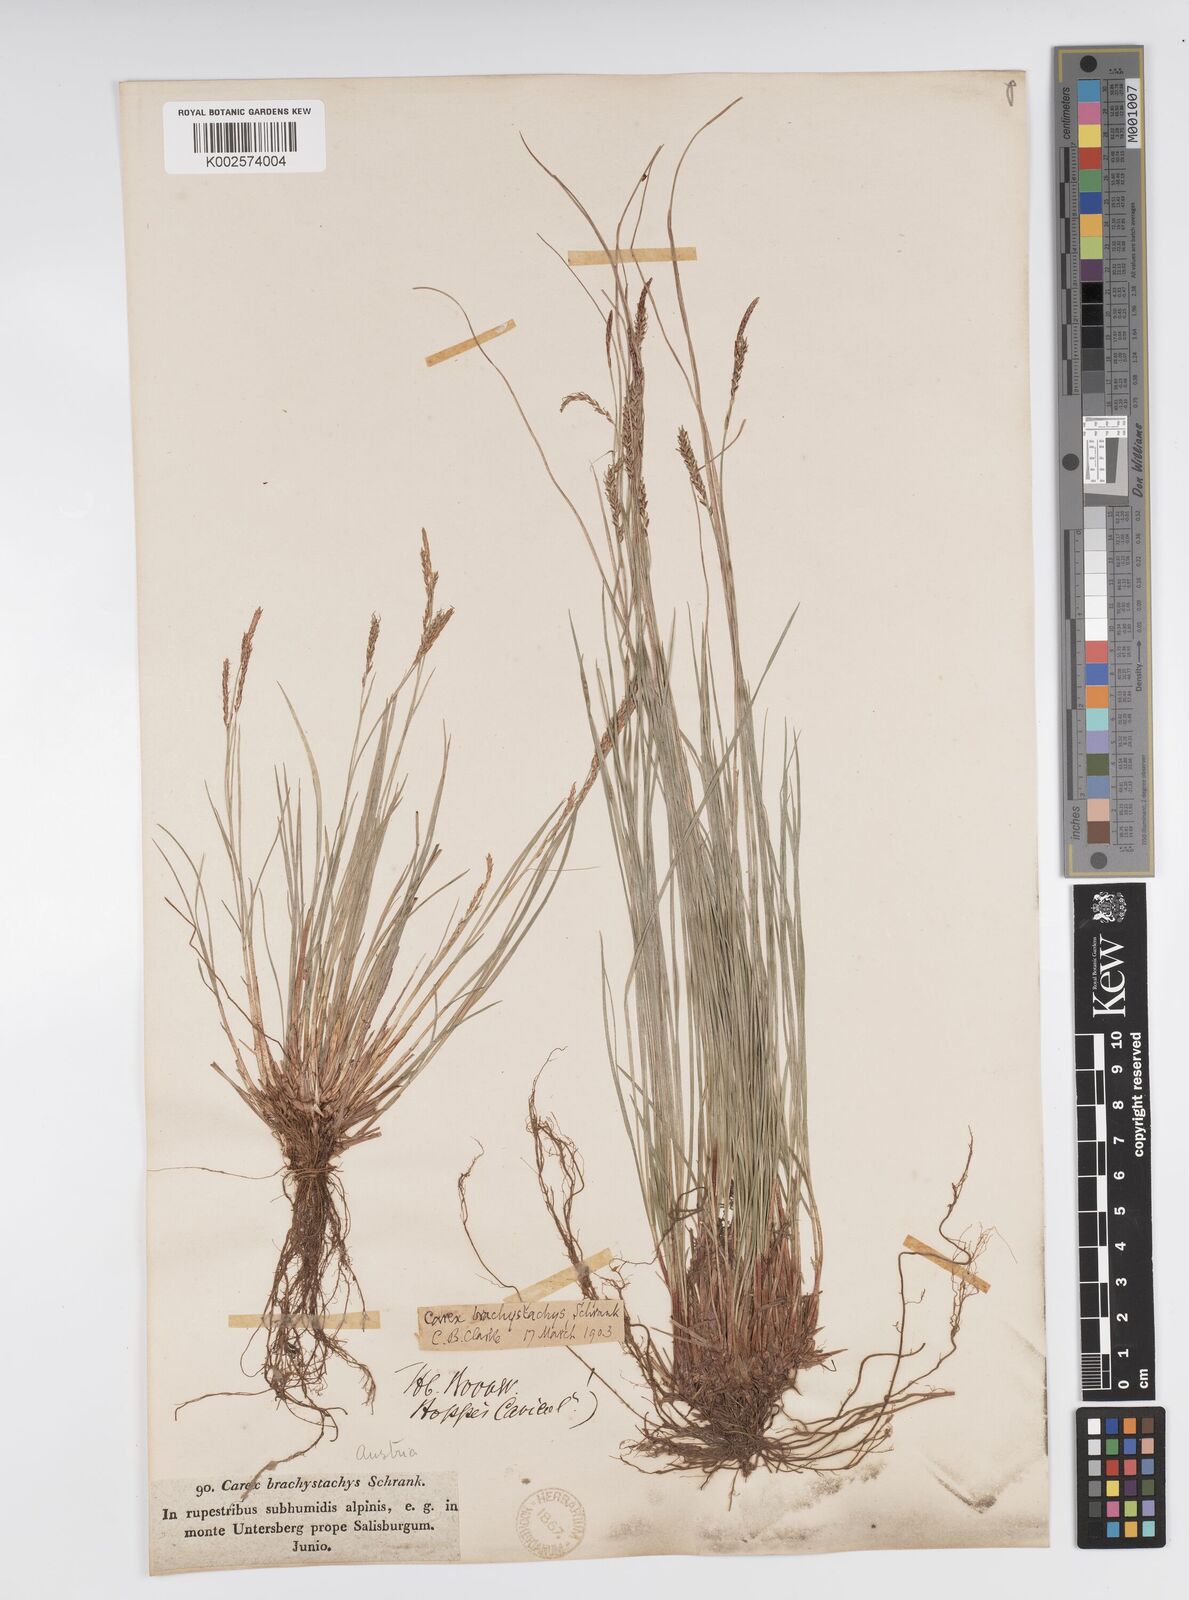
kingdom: Plantae
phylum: Tracheophyta
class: Liliopsida
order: Poales
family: Cyperaceae
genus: Carex
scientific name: Carex brachystachys
